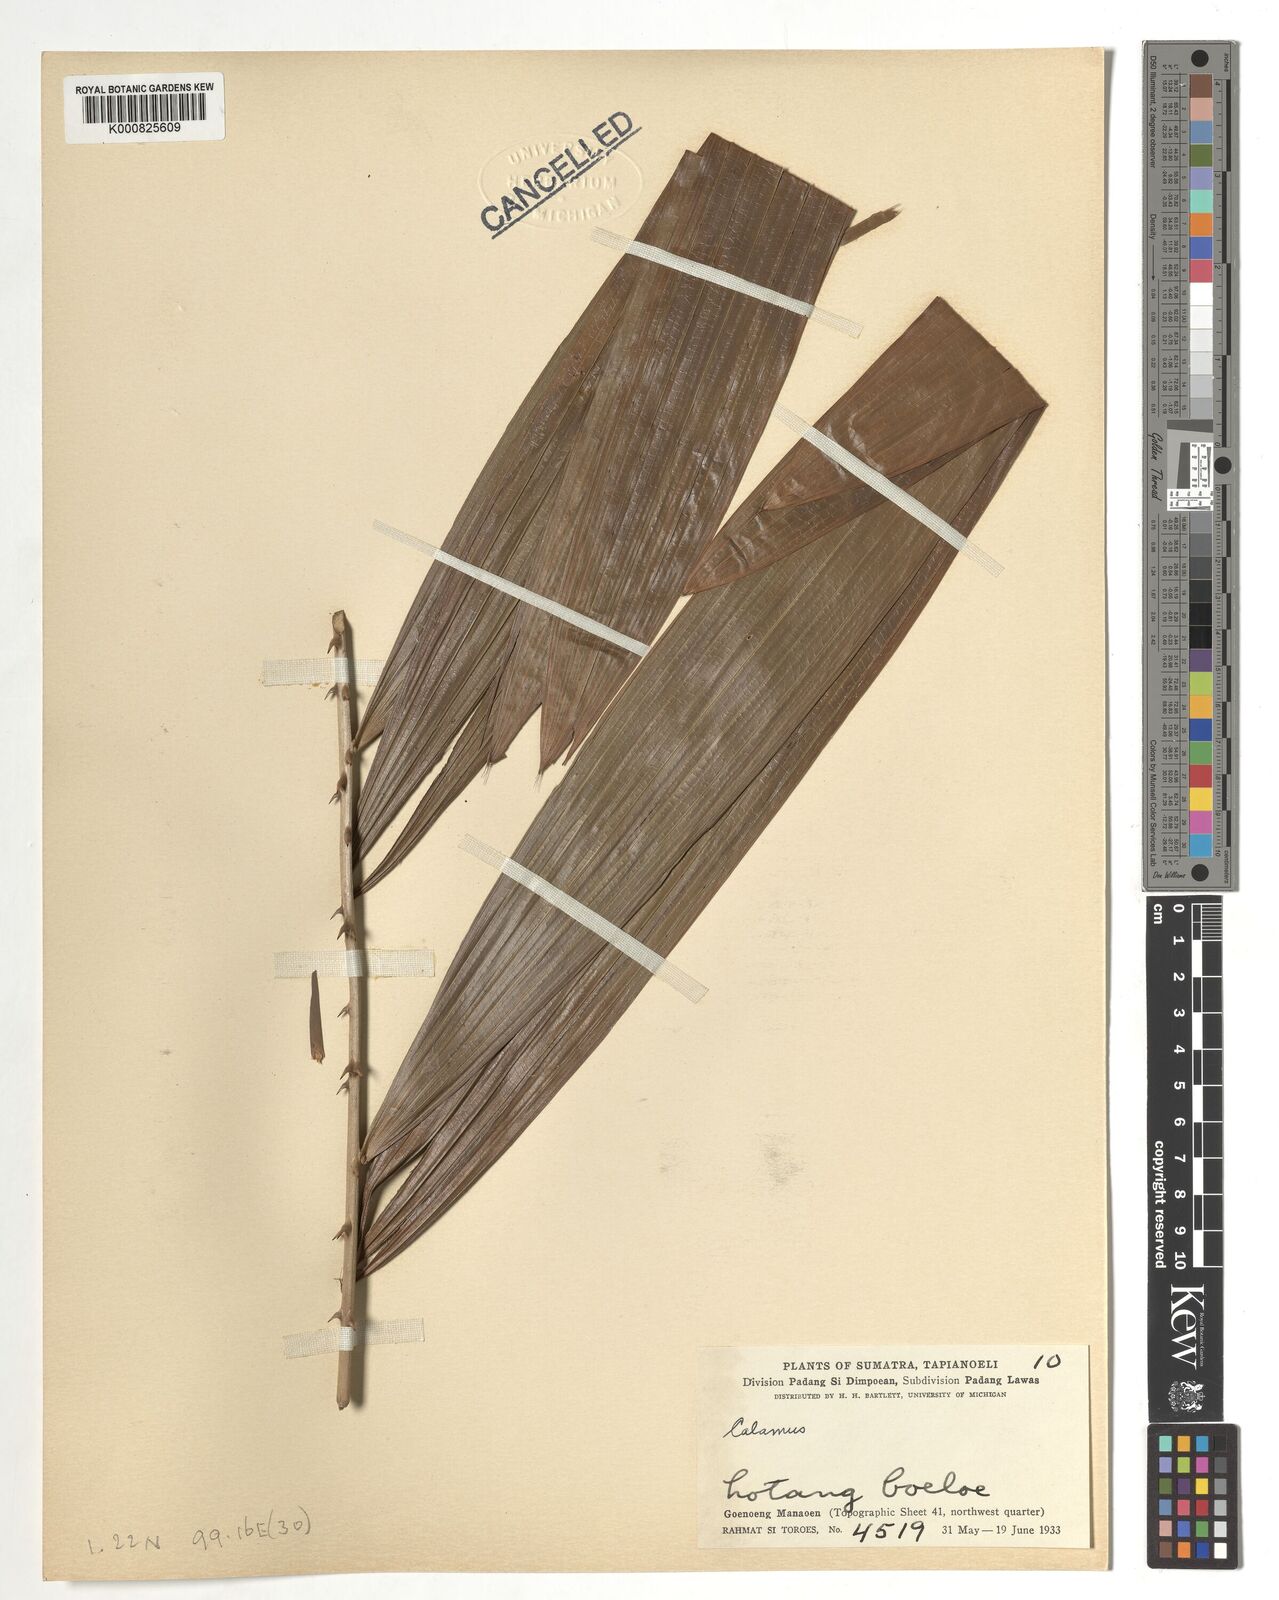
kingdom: Plantae
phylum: Tracheophyta
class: Liliopsida
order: Arecales
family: Arecaceae
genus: Calamus
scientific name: Calamus
